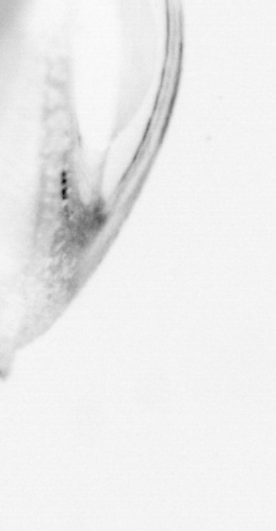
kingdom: Animalia
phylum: Chordata
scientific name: Chordata
